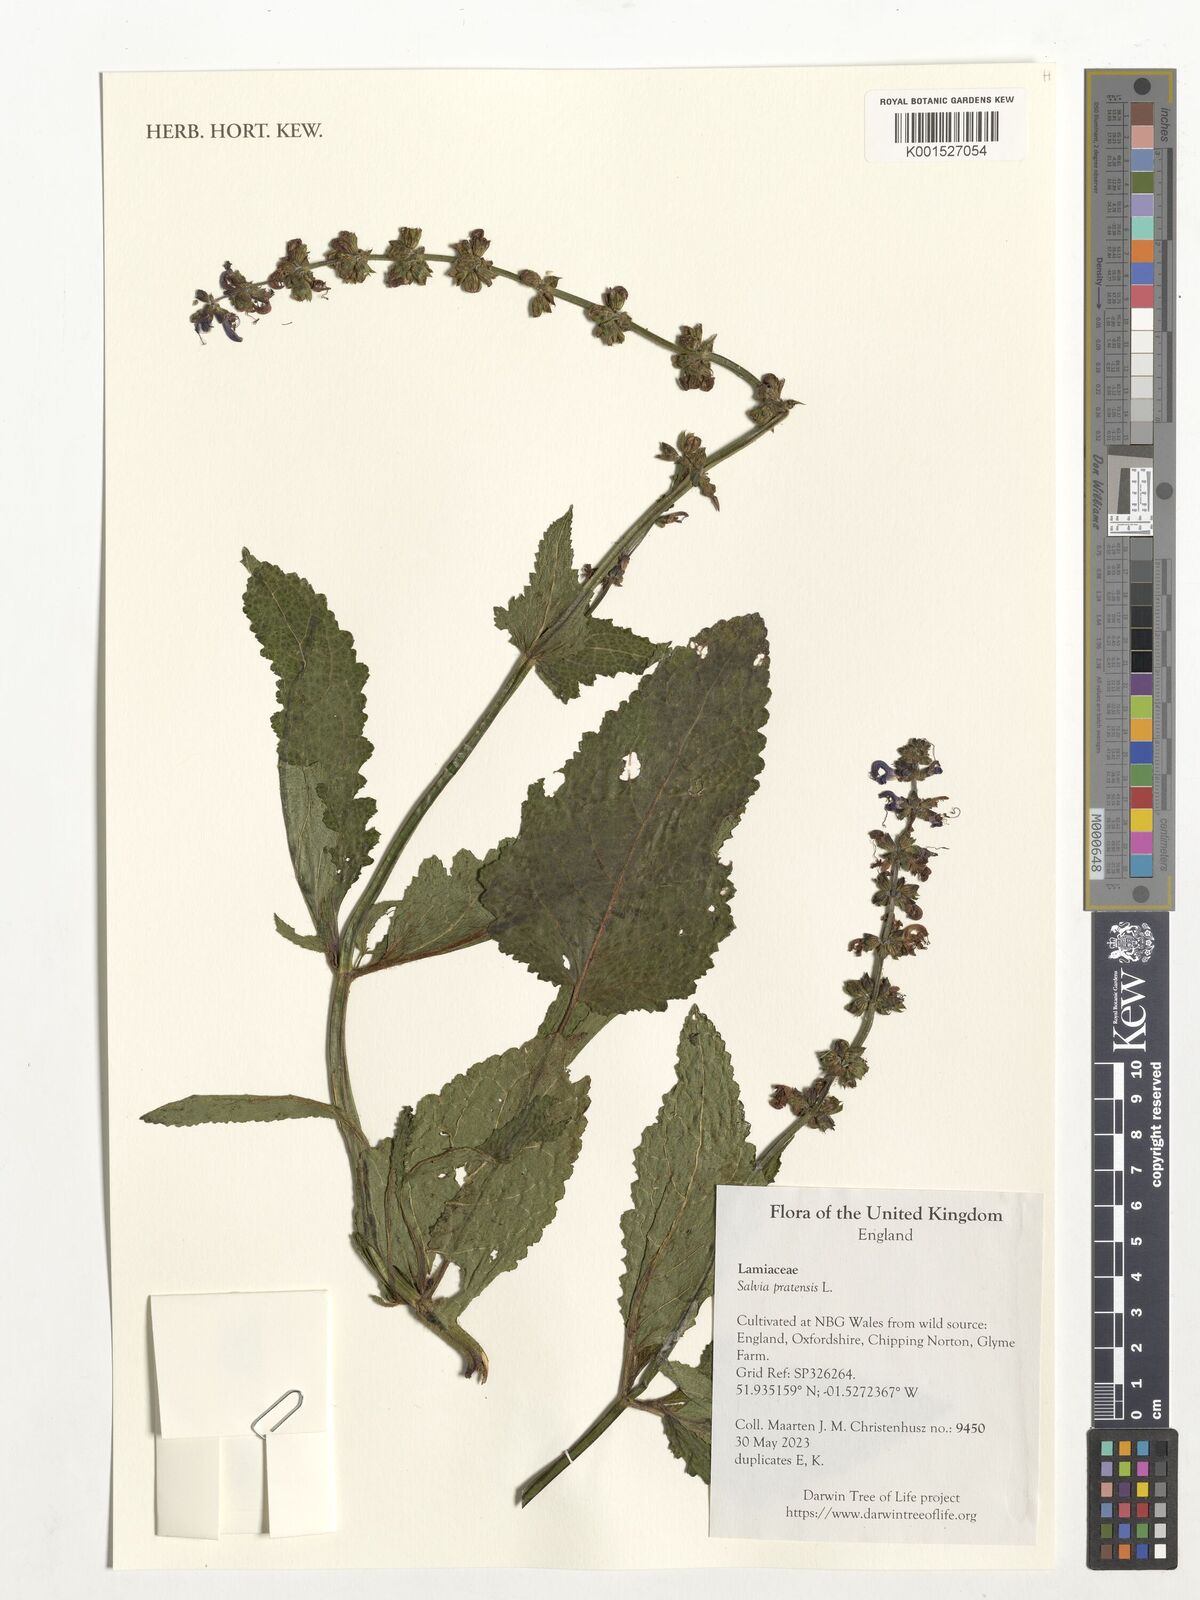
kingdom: Plantae
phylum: Tracheophyta
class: Magnoliopsida
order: Lamiales
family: Lamiaceae
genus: Salvia
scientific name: Salvia pratensis
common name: Meadow sage
